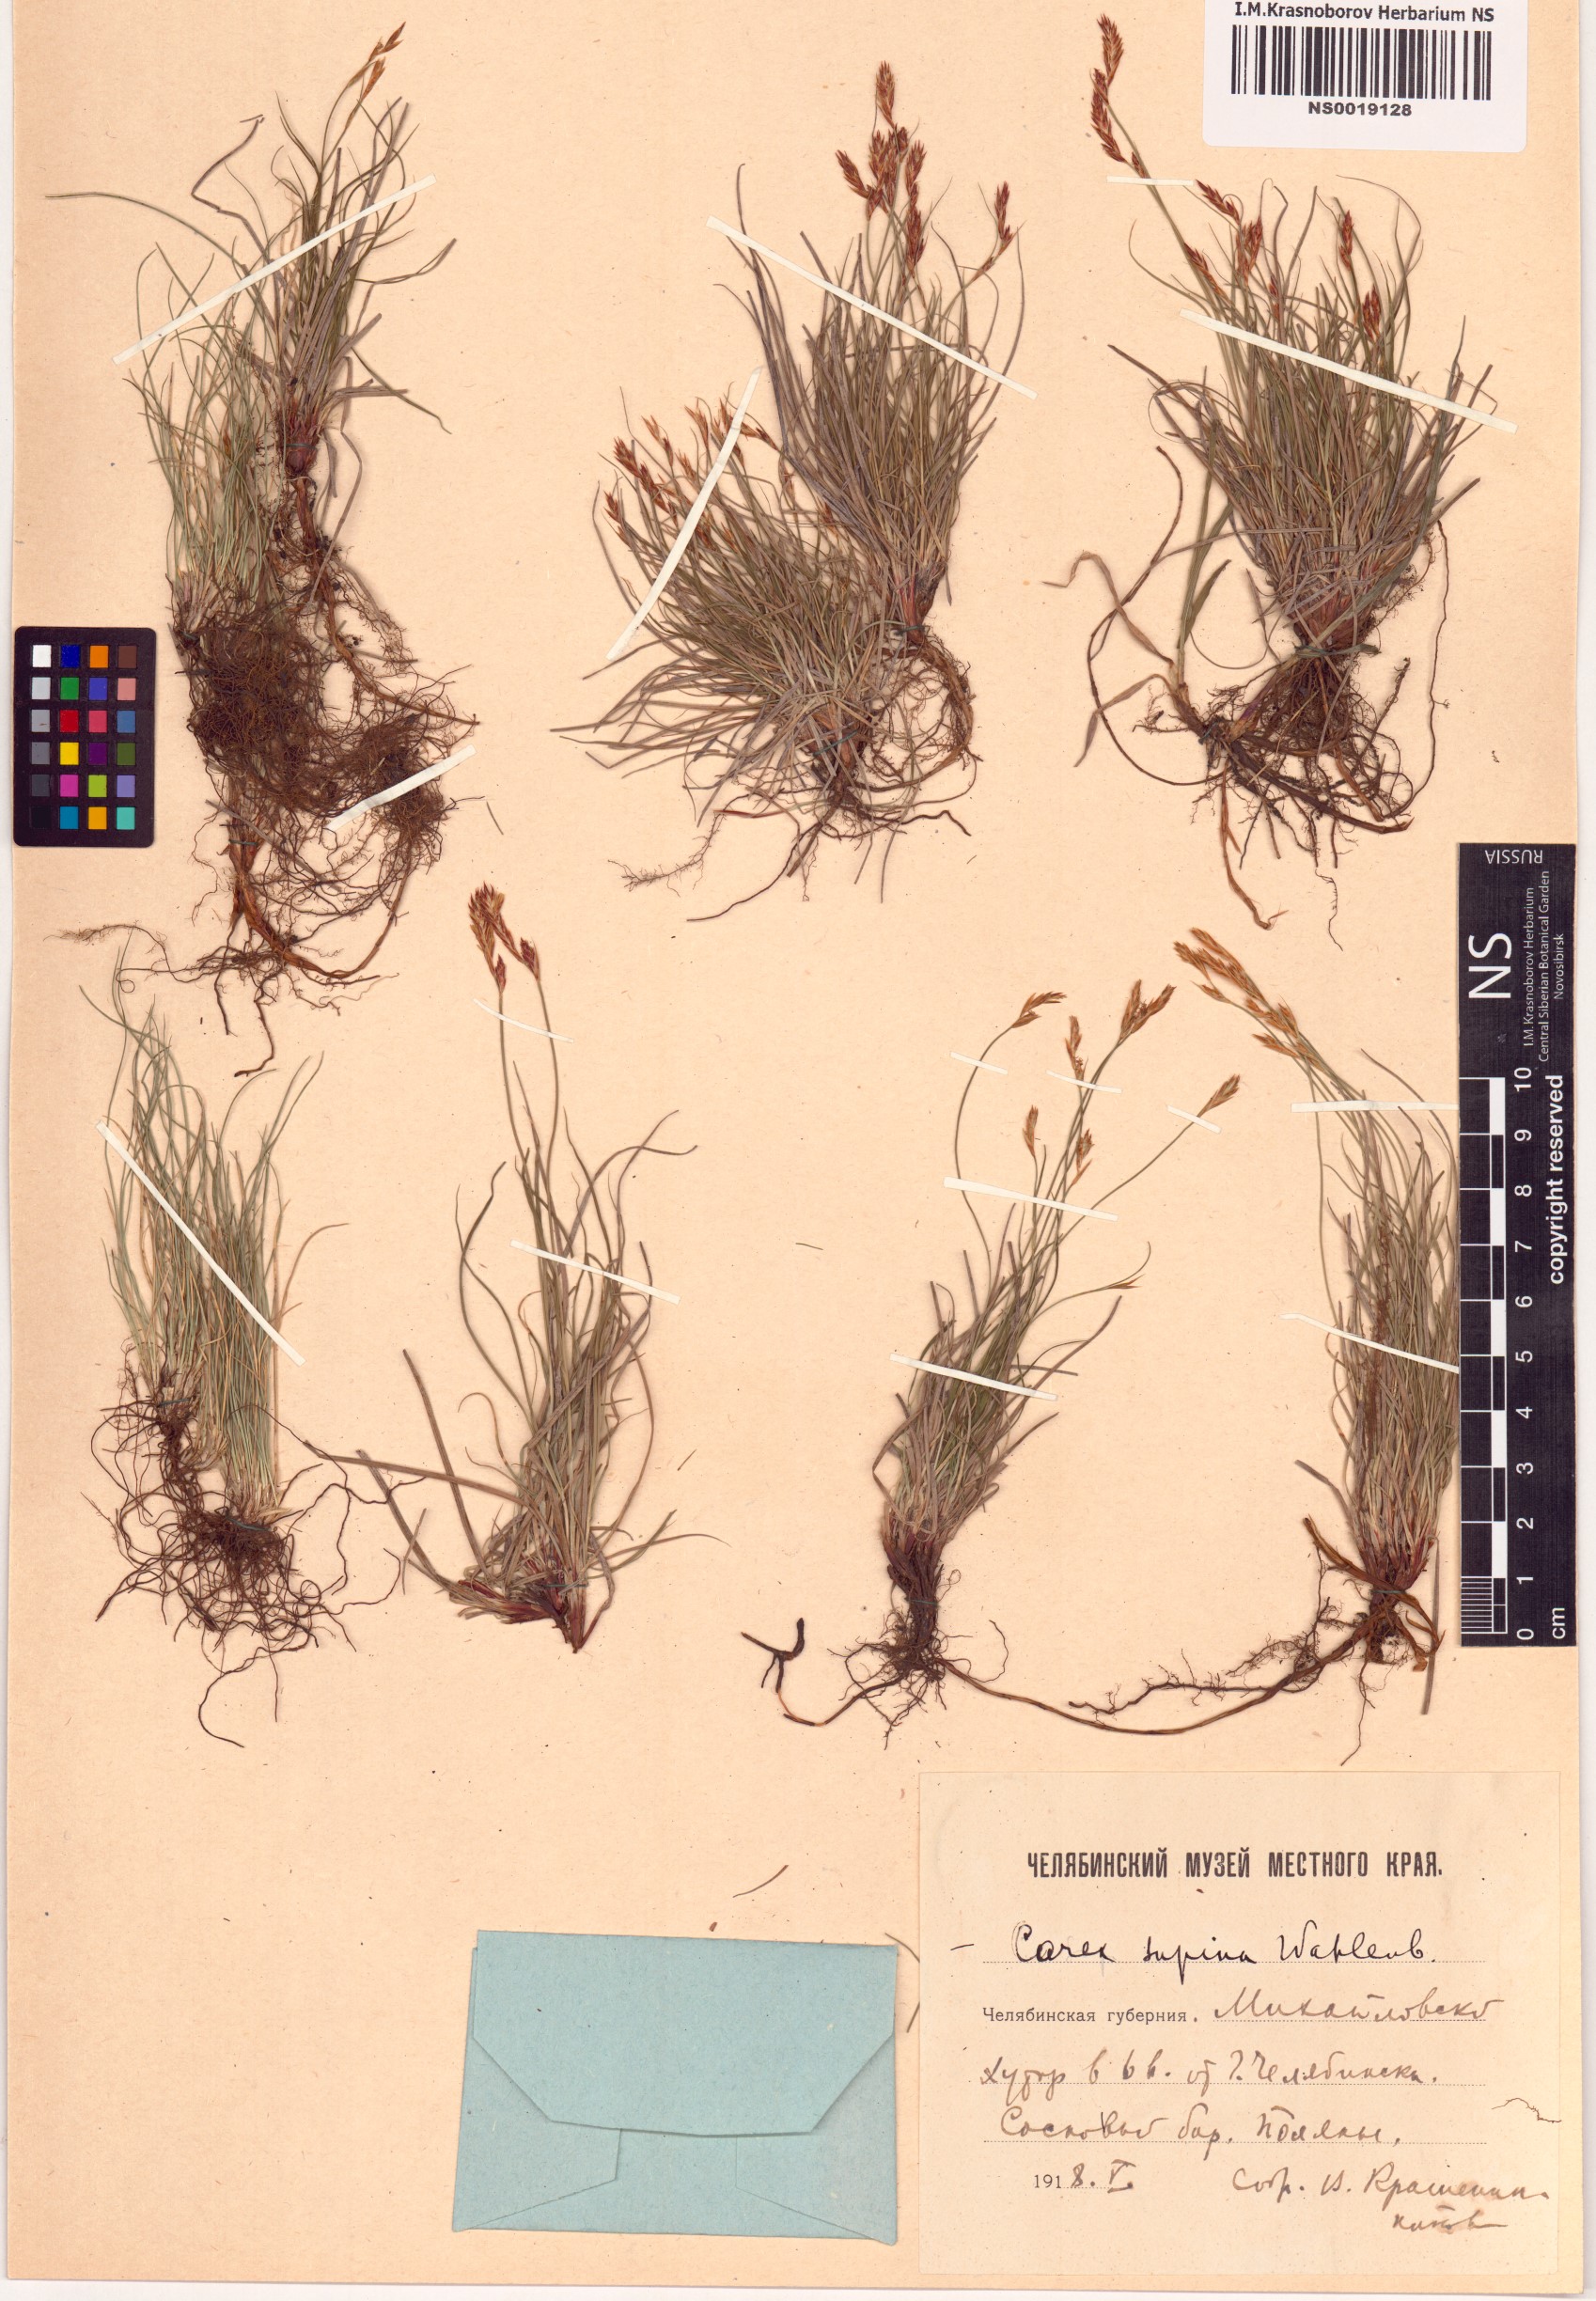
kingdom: Plantae
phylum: Tracheophyta
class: Liliopsida
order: Poales
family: Cyperaceae
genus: Carex
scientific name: Carex supina
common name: Lying-back sedge
